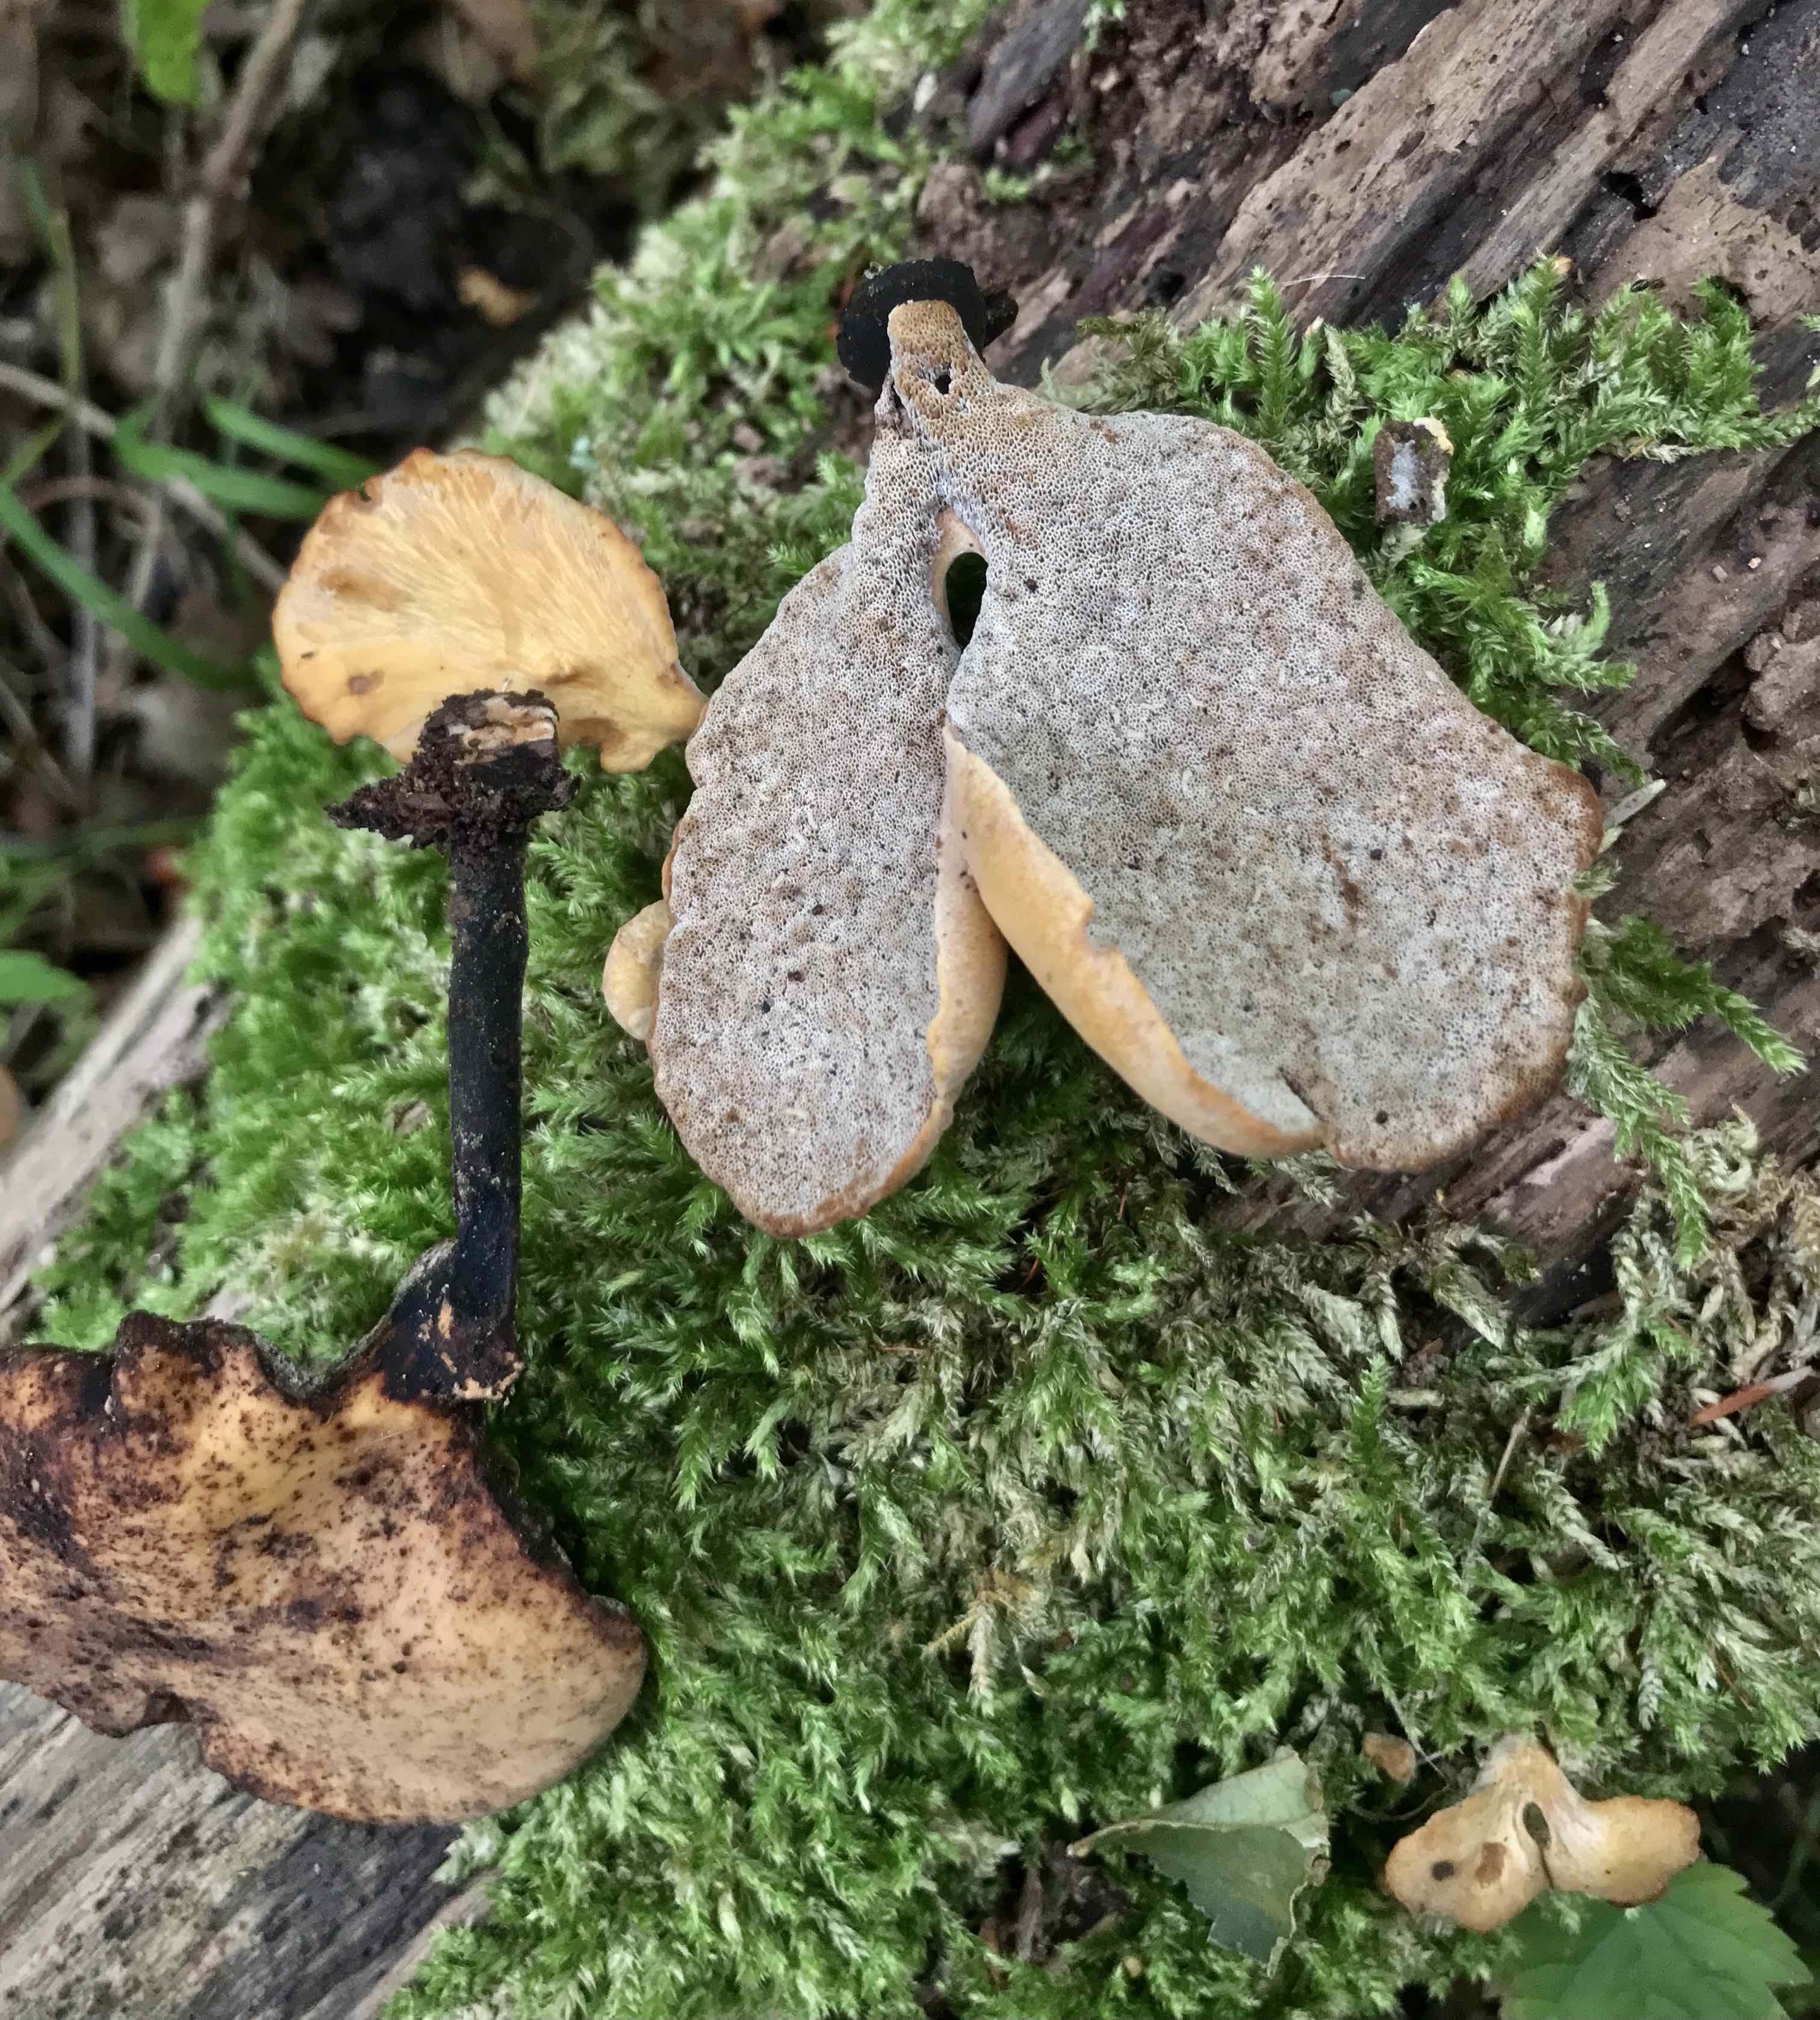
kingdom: Fungi
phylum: Basidiomycota
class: Agaricomycetes
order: Polyporales
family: Polyporaceae
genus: Cerioporus
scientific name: Cerioporus varius
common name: foranderlig stilkporesvamp
